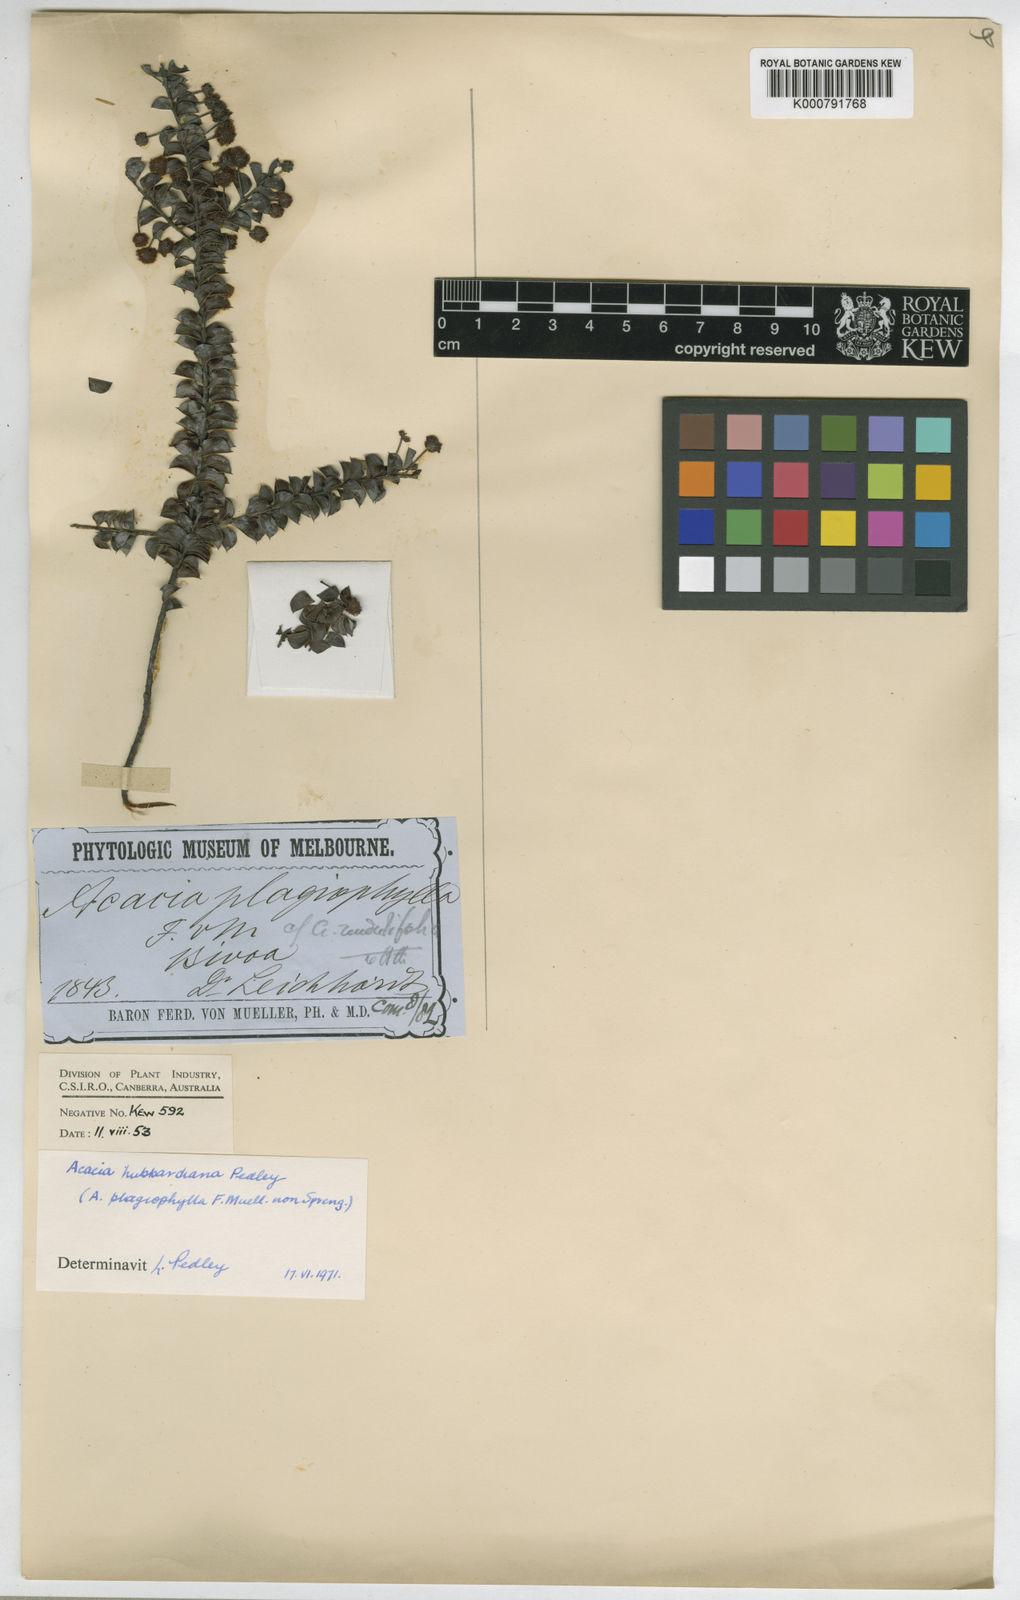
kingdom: Plantae
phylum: Tracheophyta
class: Magnoliopsida
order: Fabales
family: Fabaceae
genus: Acacia
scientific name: Acacia undulifolia
